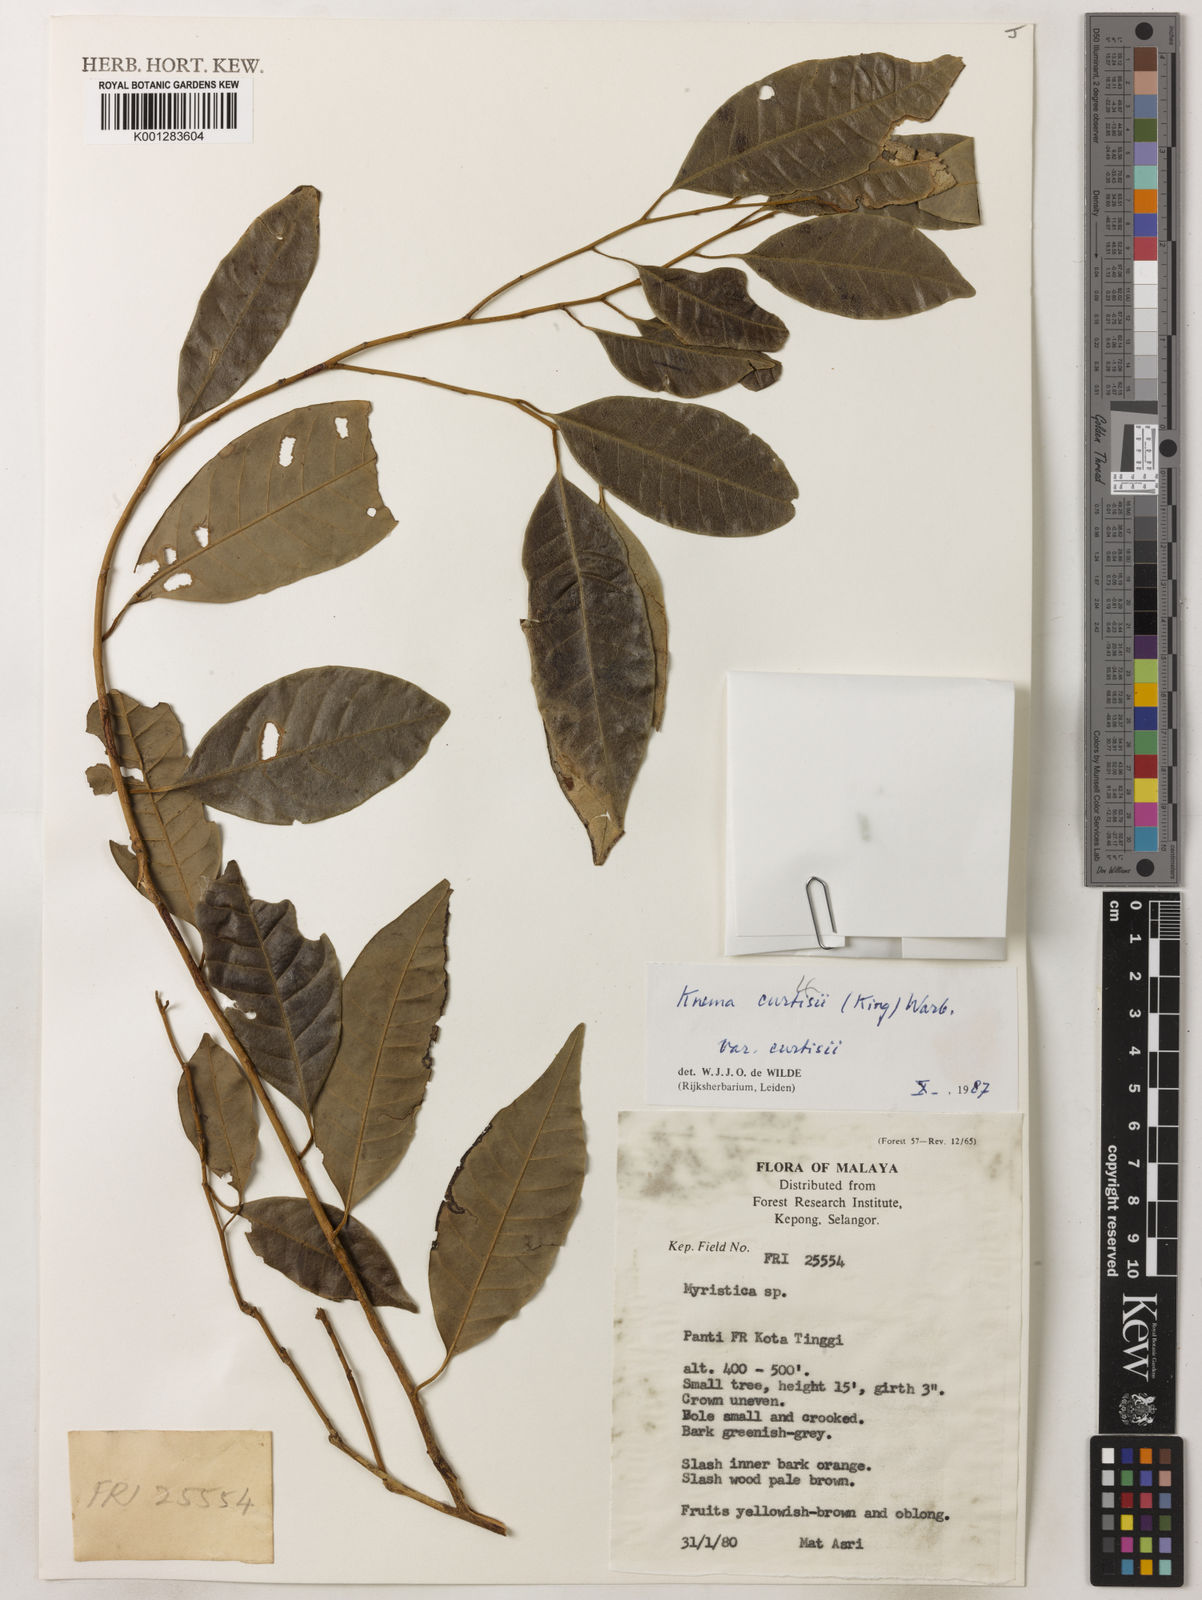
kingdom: Plantae
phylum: Tracheophyta
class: Magnoliopsida
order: Magnoliales
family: Myristicaceae
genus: Knema
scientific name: Knema curtisii
